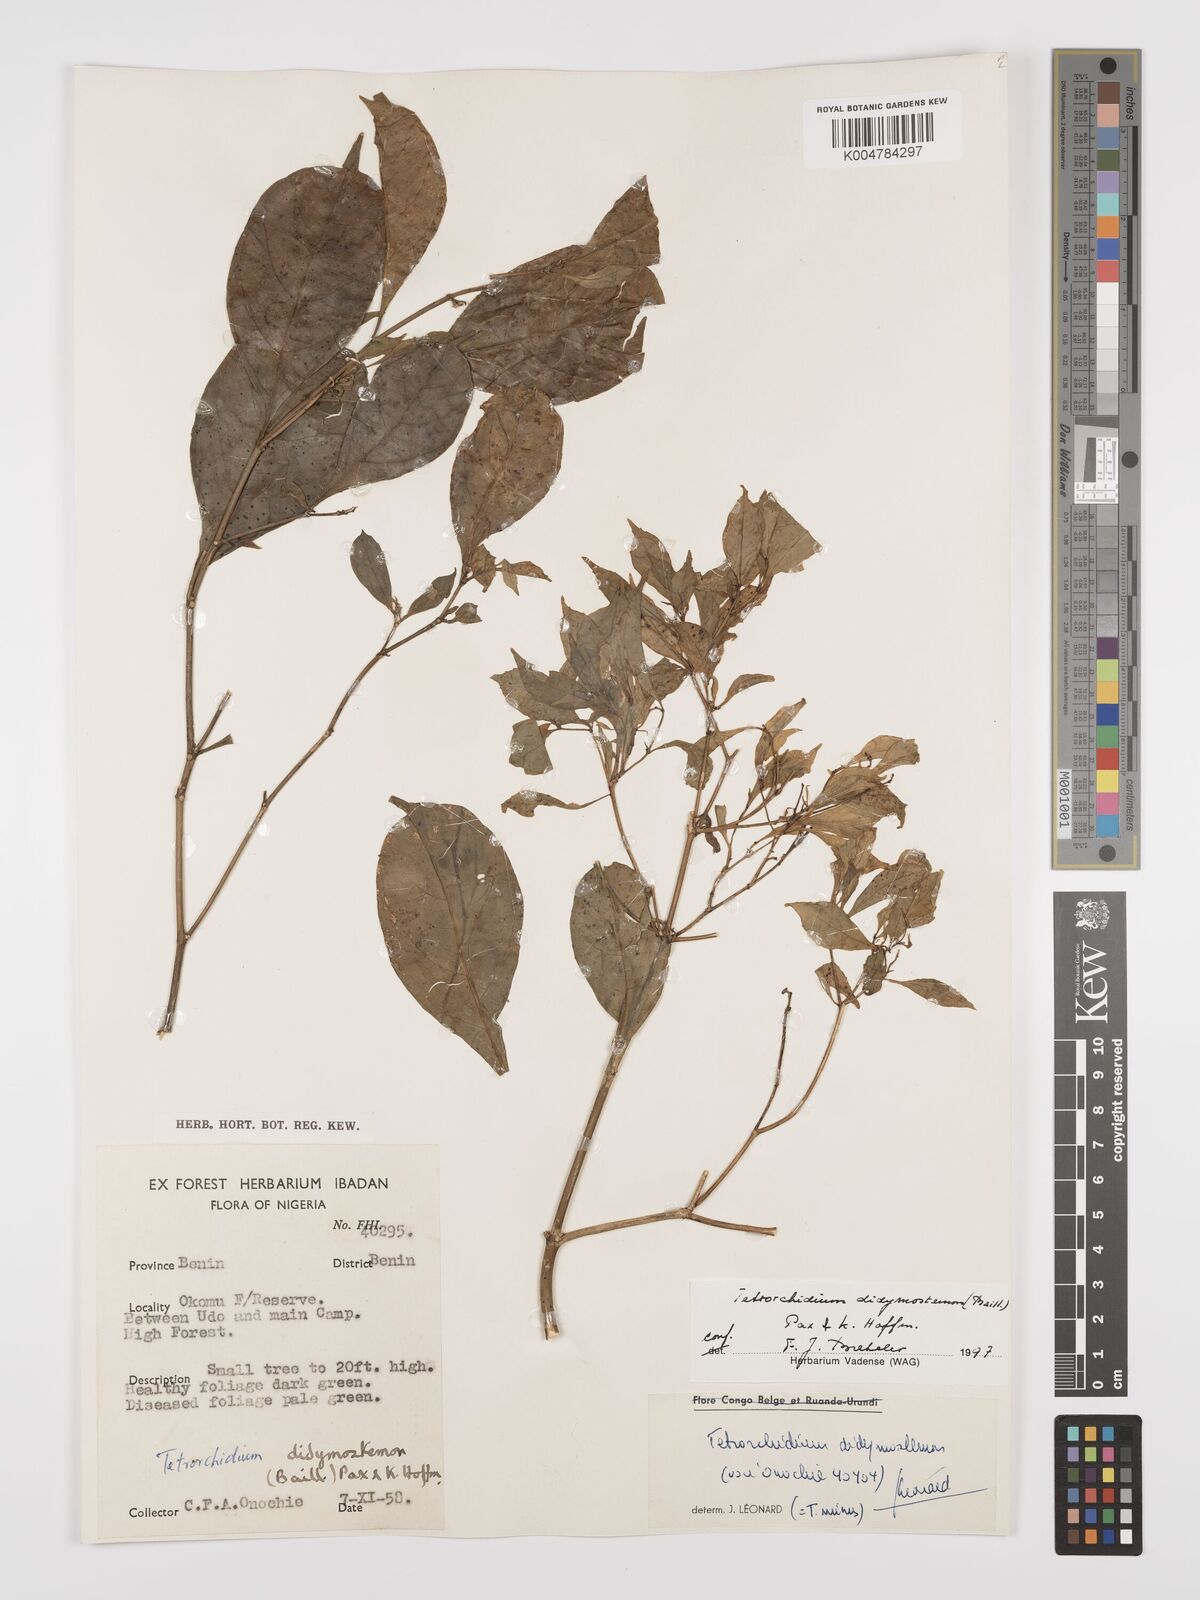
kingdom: Plantae
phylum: Tracheophyta
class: Magnoliopsida
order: Malpighiales
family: Euphorbiaceae
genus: Tetrorchidium
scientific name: Tetrorchidium didymostemon
